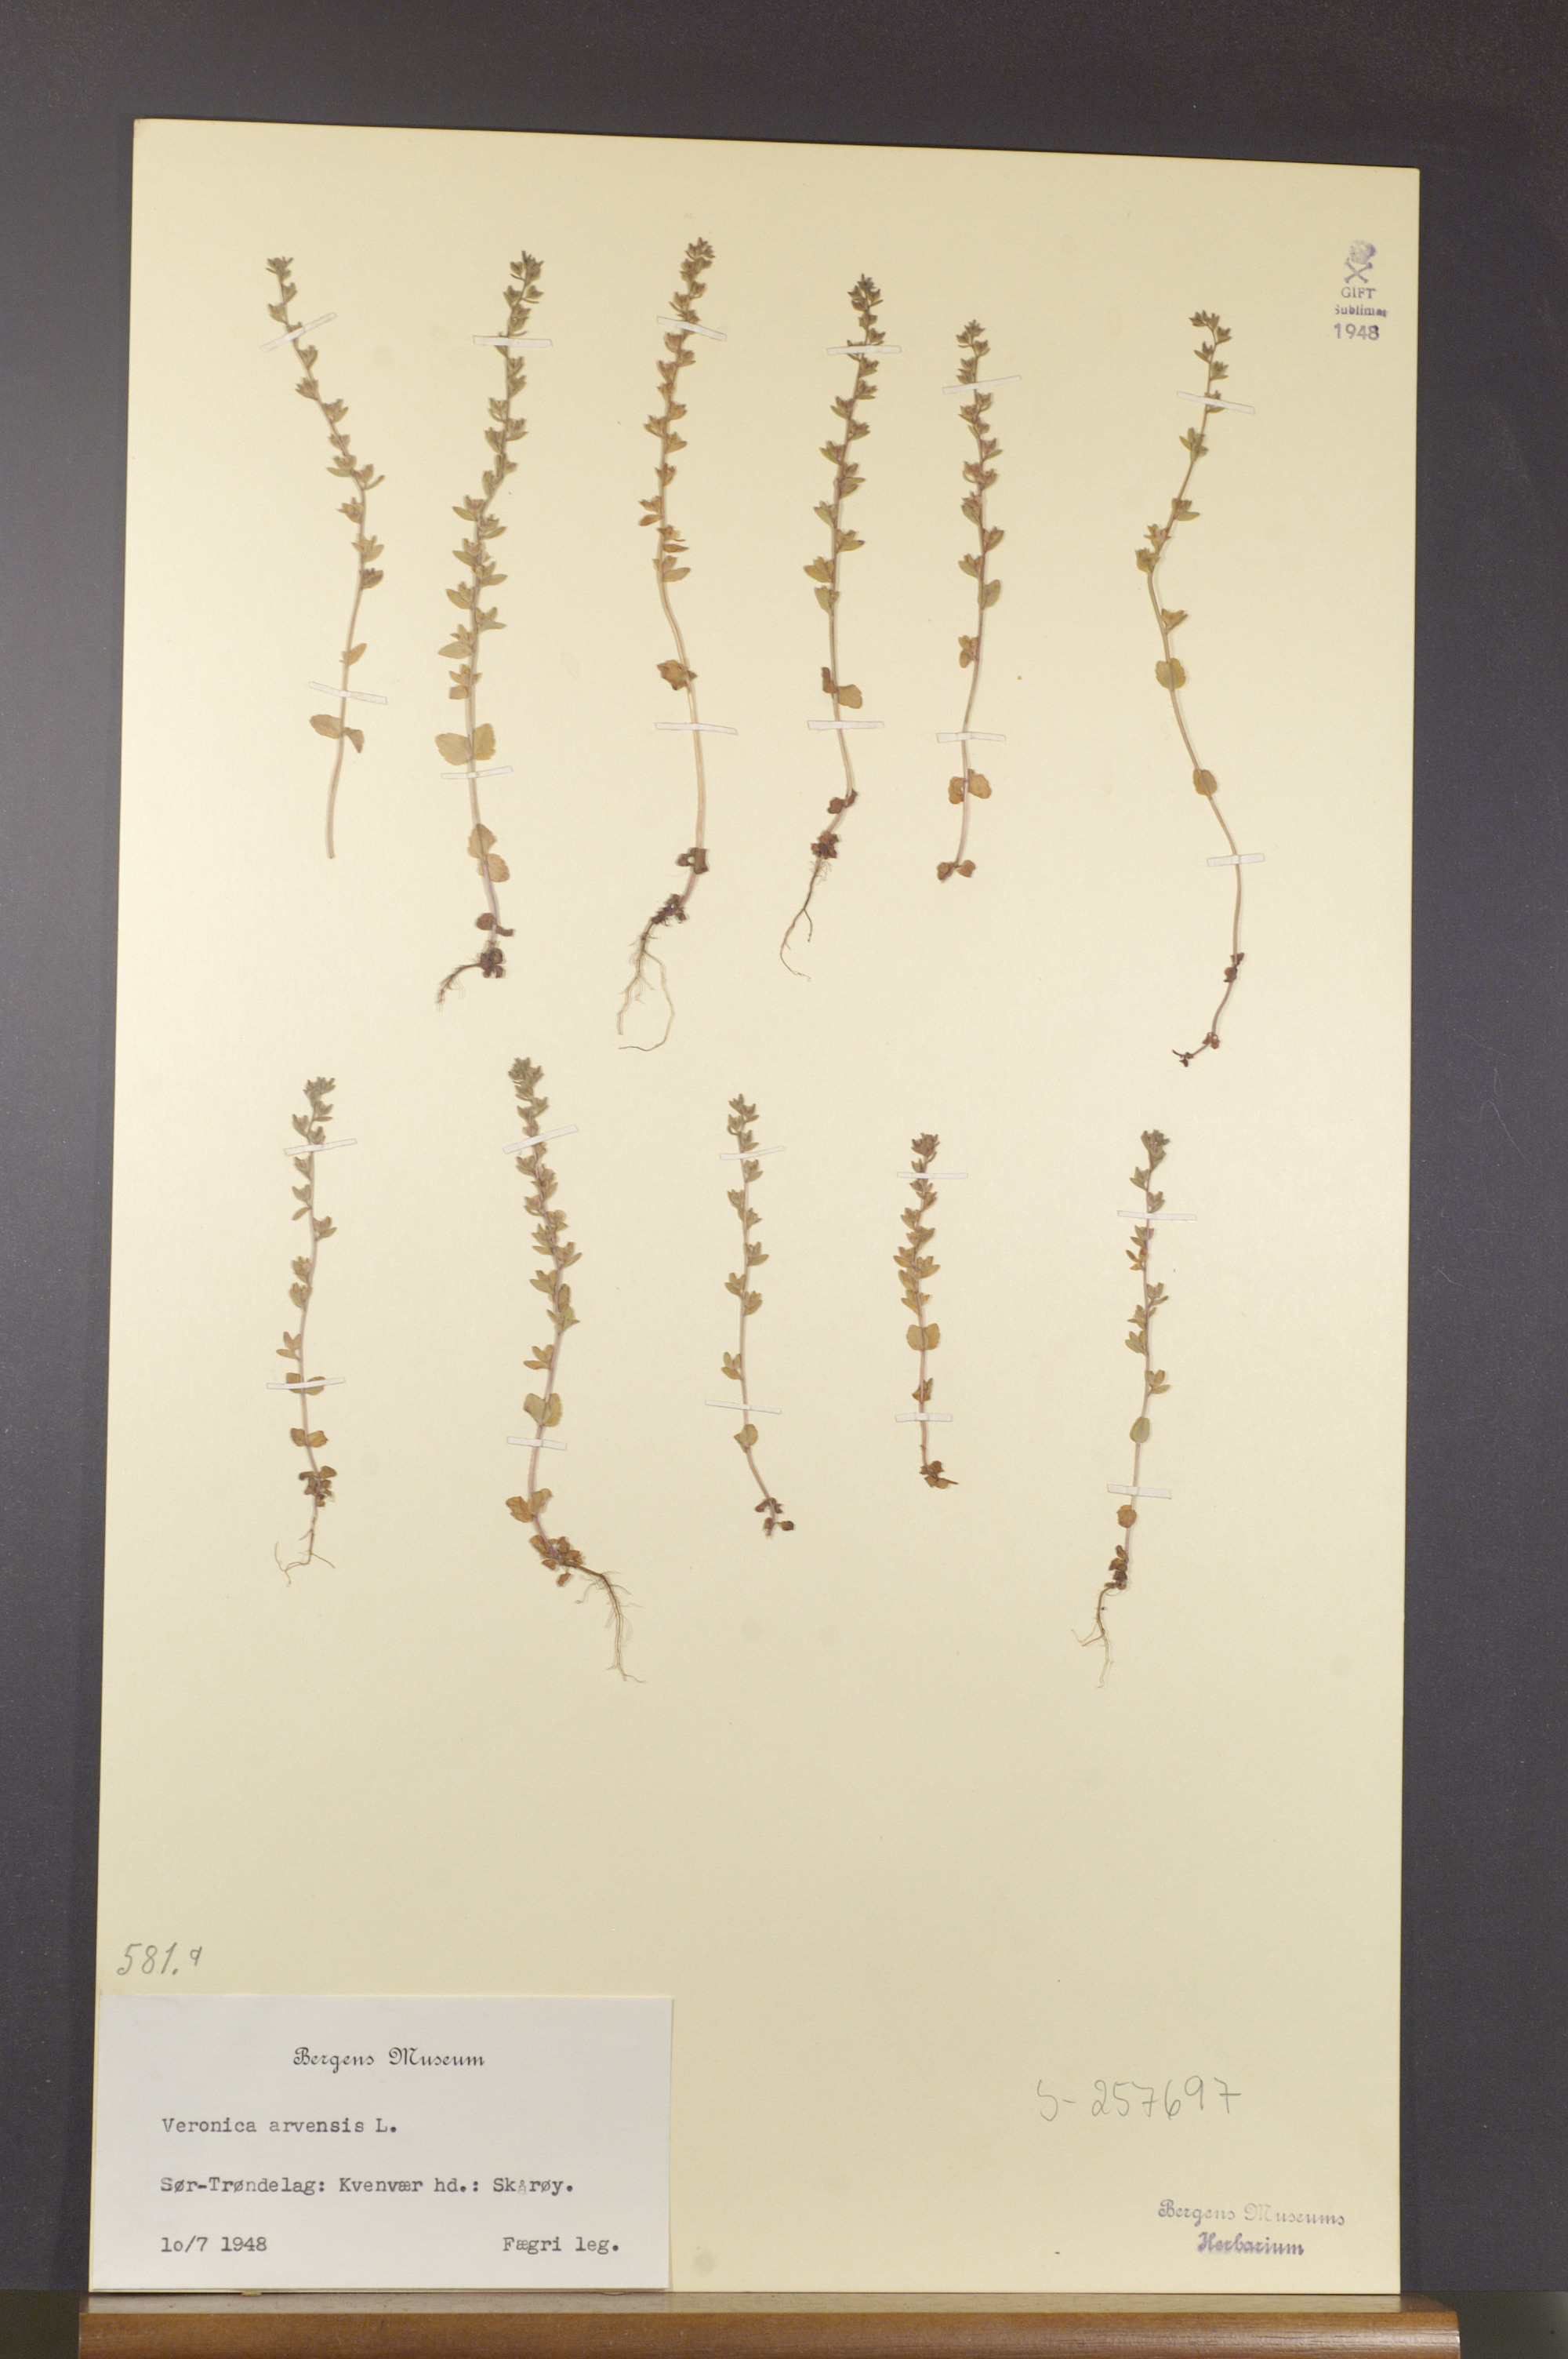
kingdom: Plantae
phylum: Tracheophyta
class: Magnoliopsida
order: Lamiales
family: Plantaginaceae
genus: Veronica
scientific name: Veronica arvensis
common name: Corn speedwell
